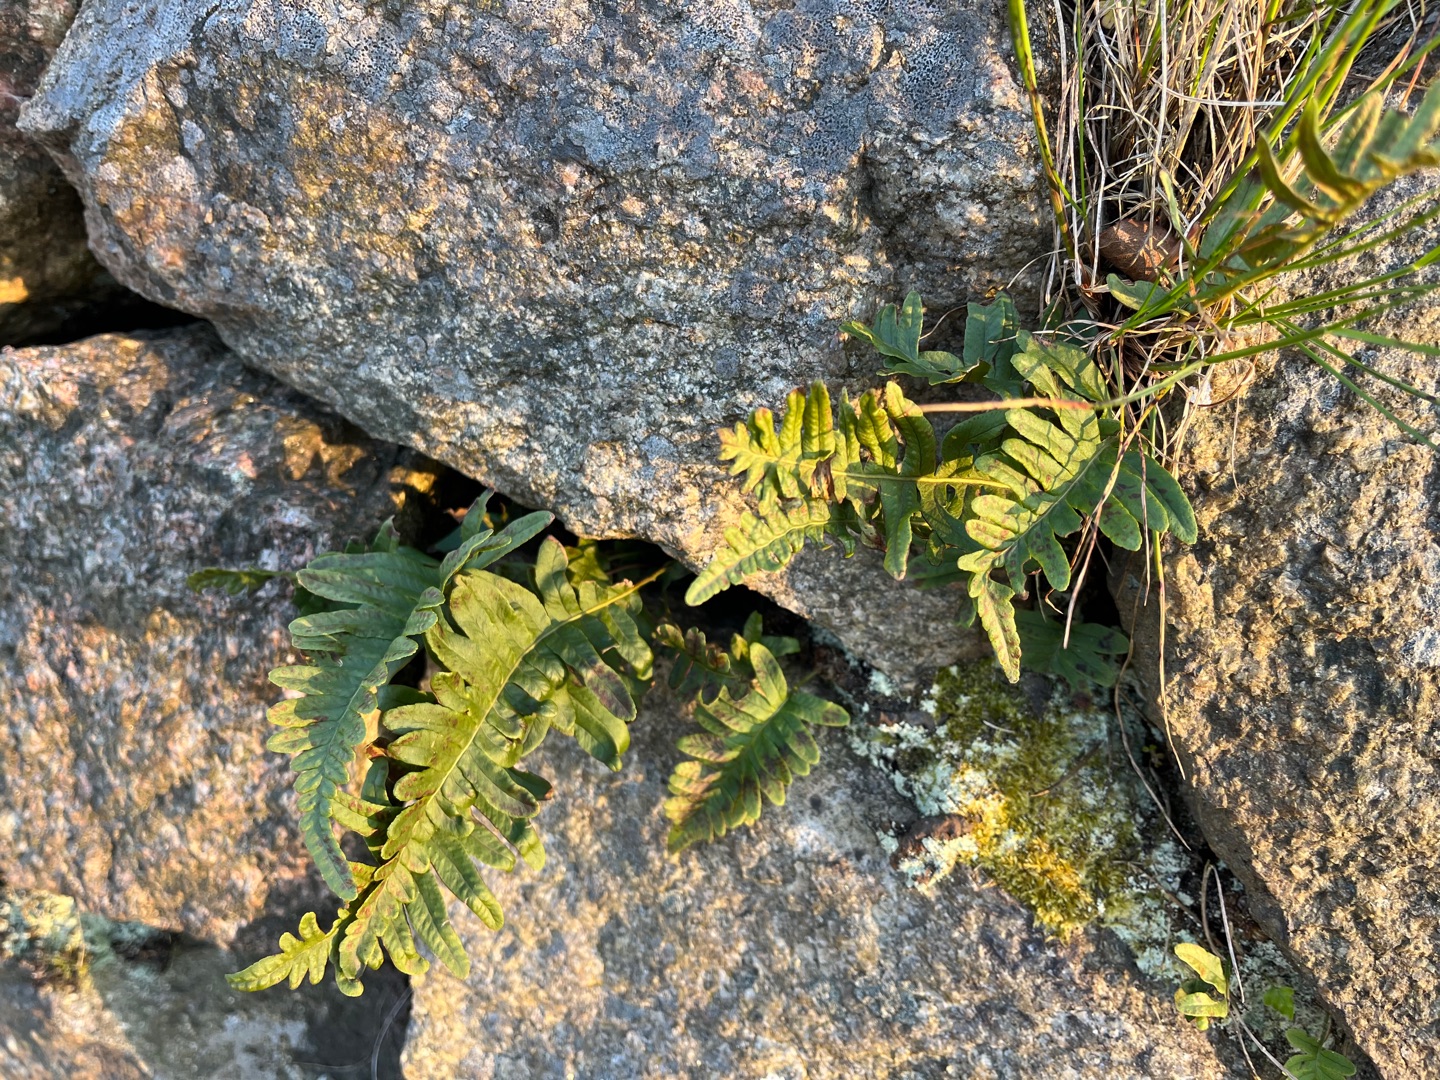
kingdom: Plantae
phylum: Tracheophyta
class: Polypodiopsida
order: Polypodiales
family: Polypodiaceae
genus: Polypodium
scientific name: Polypodium vulgare
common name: Almindelig engelsød
